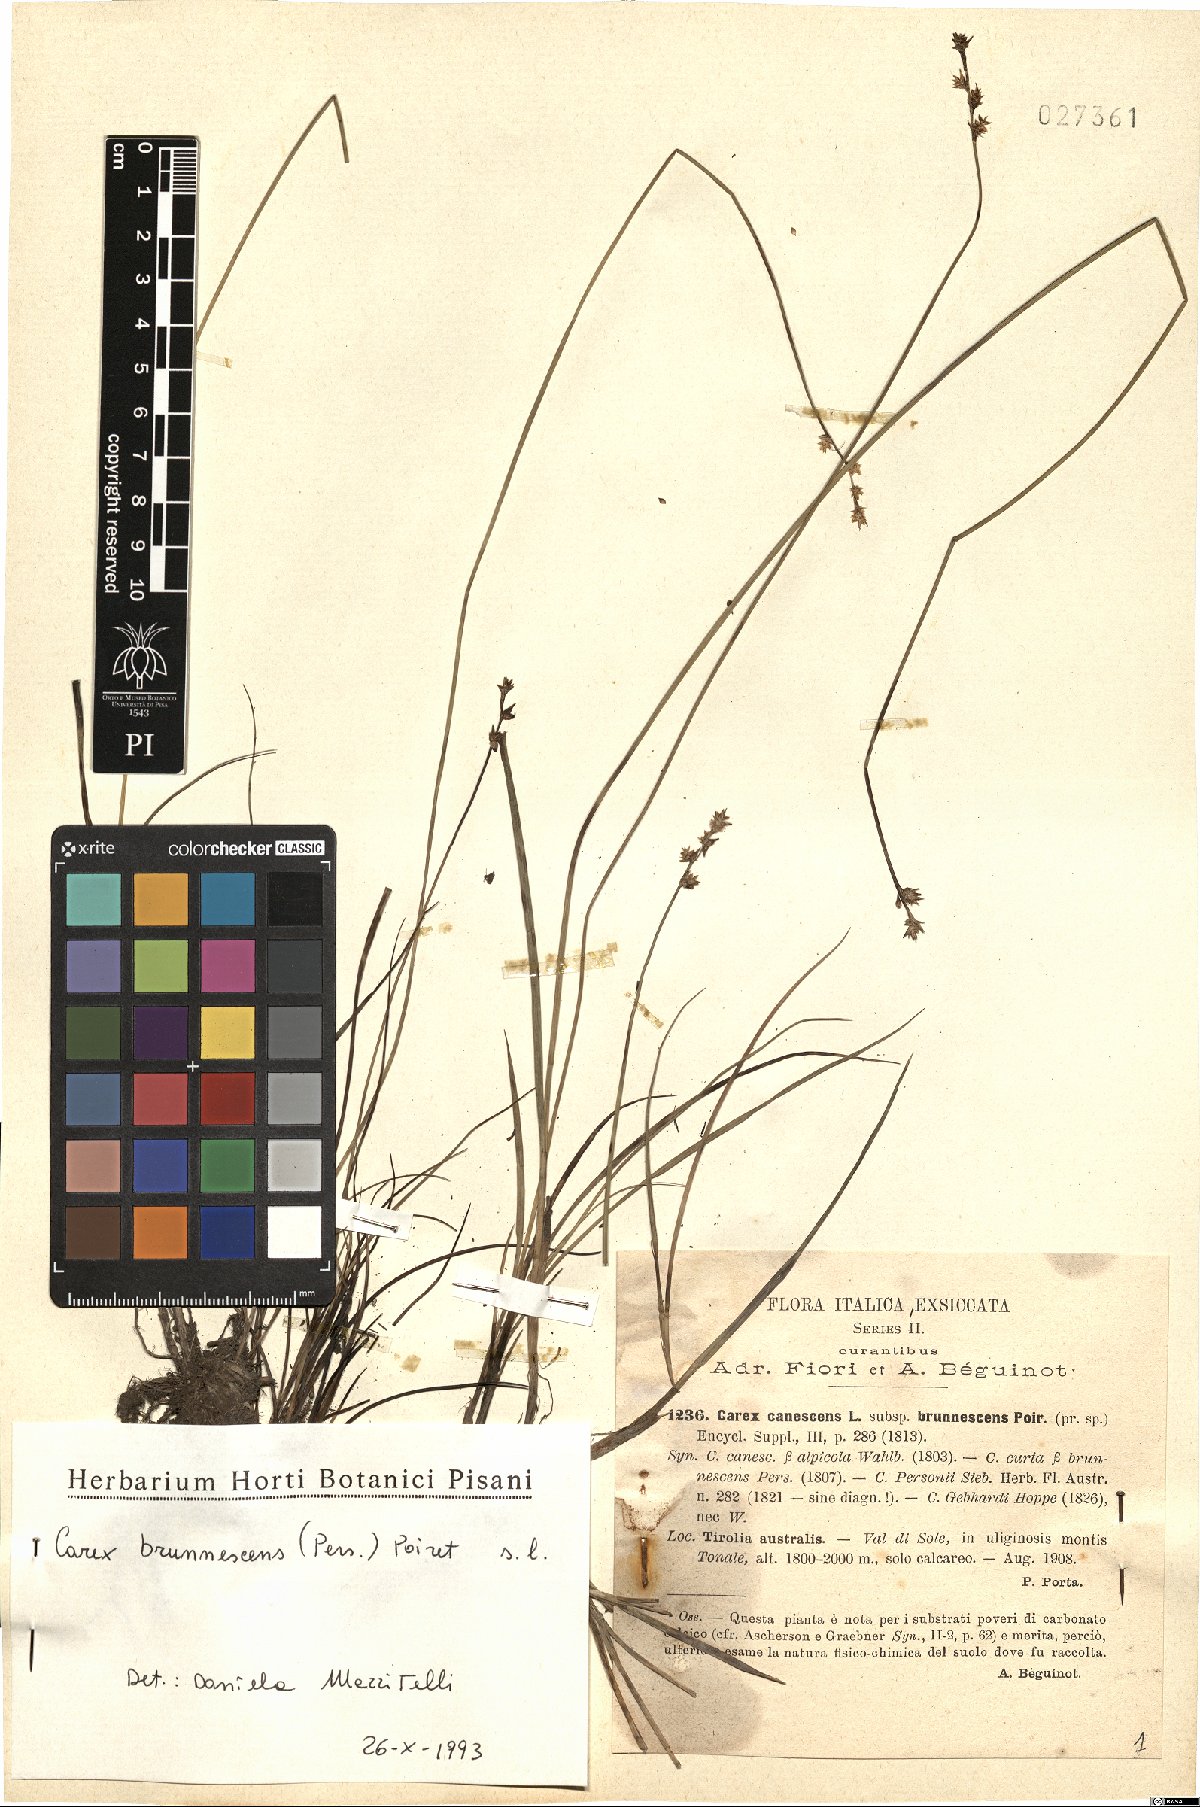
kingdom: Plantae
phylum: Tracheophyta
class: Liliopsida
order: Poales
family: Cyperaceae
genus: Carex
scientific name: Carex brunnescens
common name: Brown sedge
